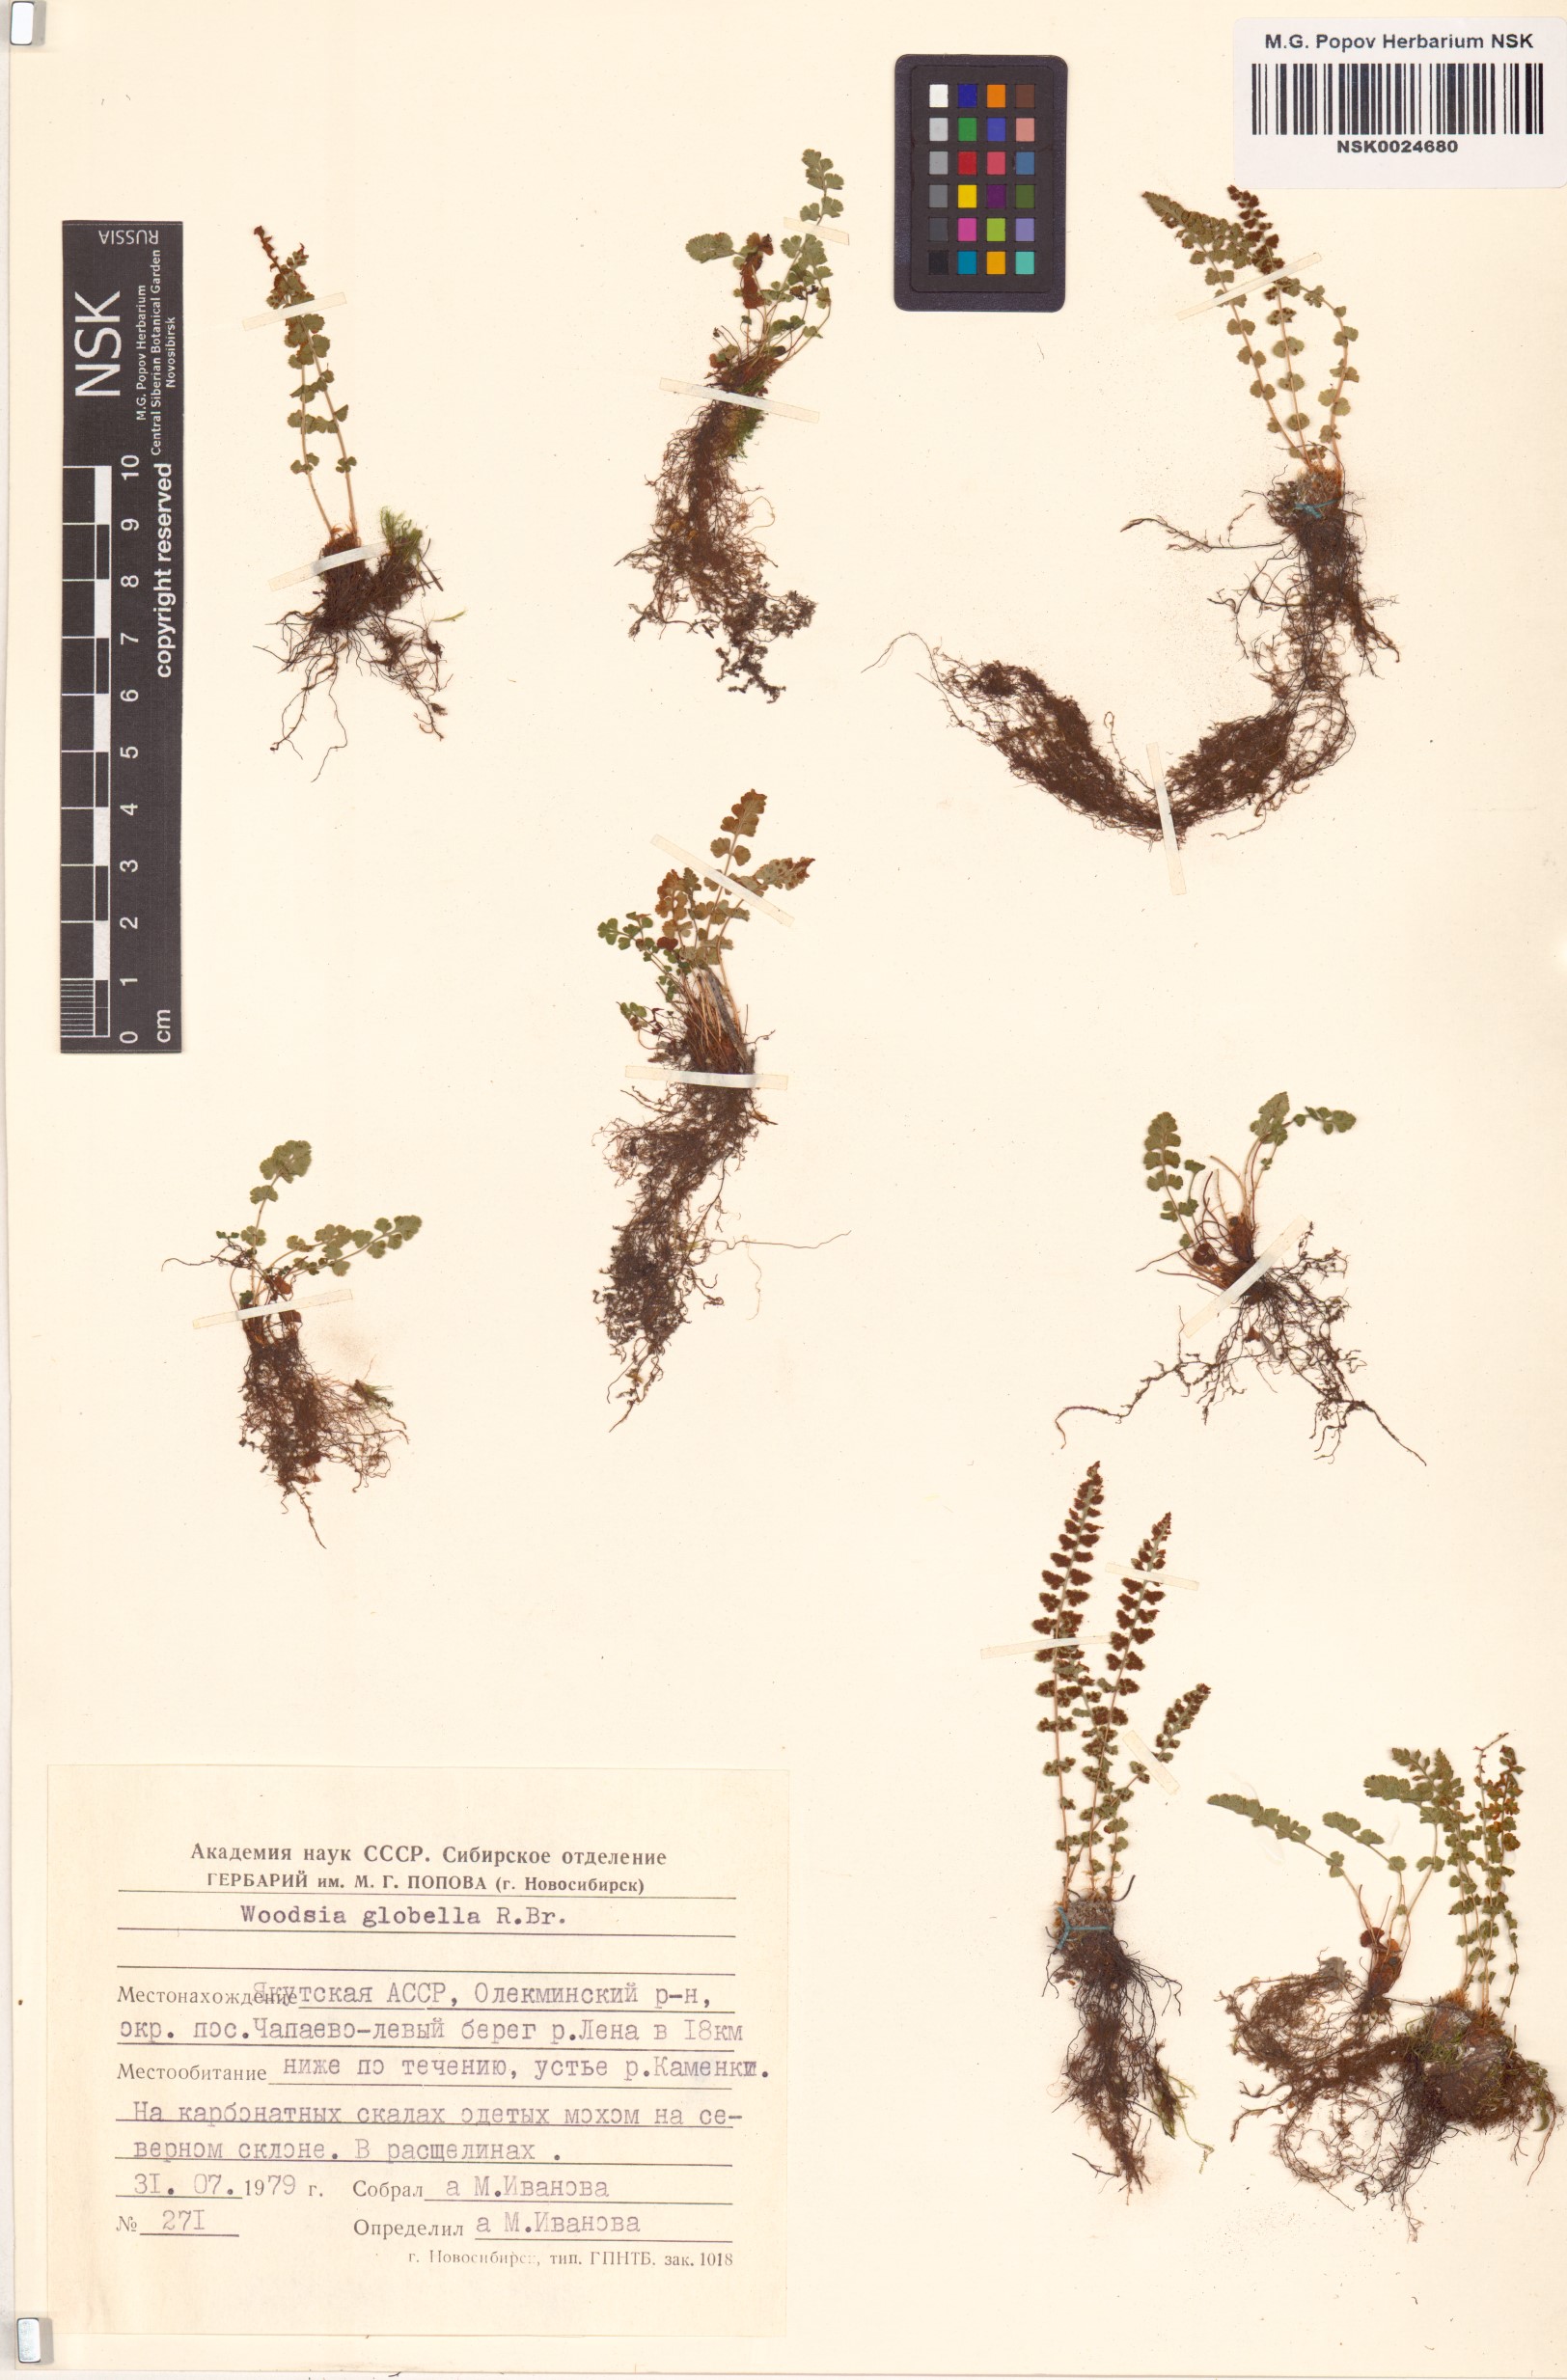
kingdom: Plantae
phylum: Tracheophyta
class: Polypodiopsida
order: Polypodiales
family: Woodsiaceae
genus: Woodsia
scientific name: Woodsia glabella
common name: Smooth woodsia
